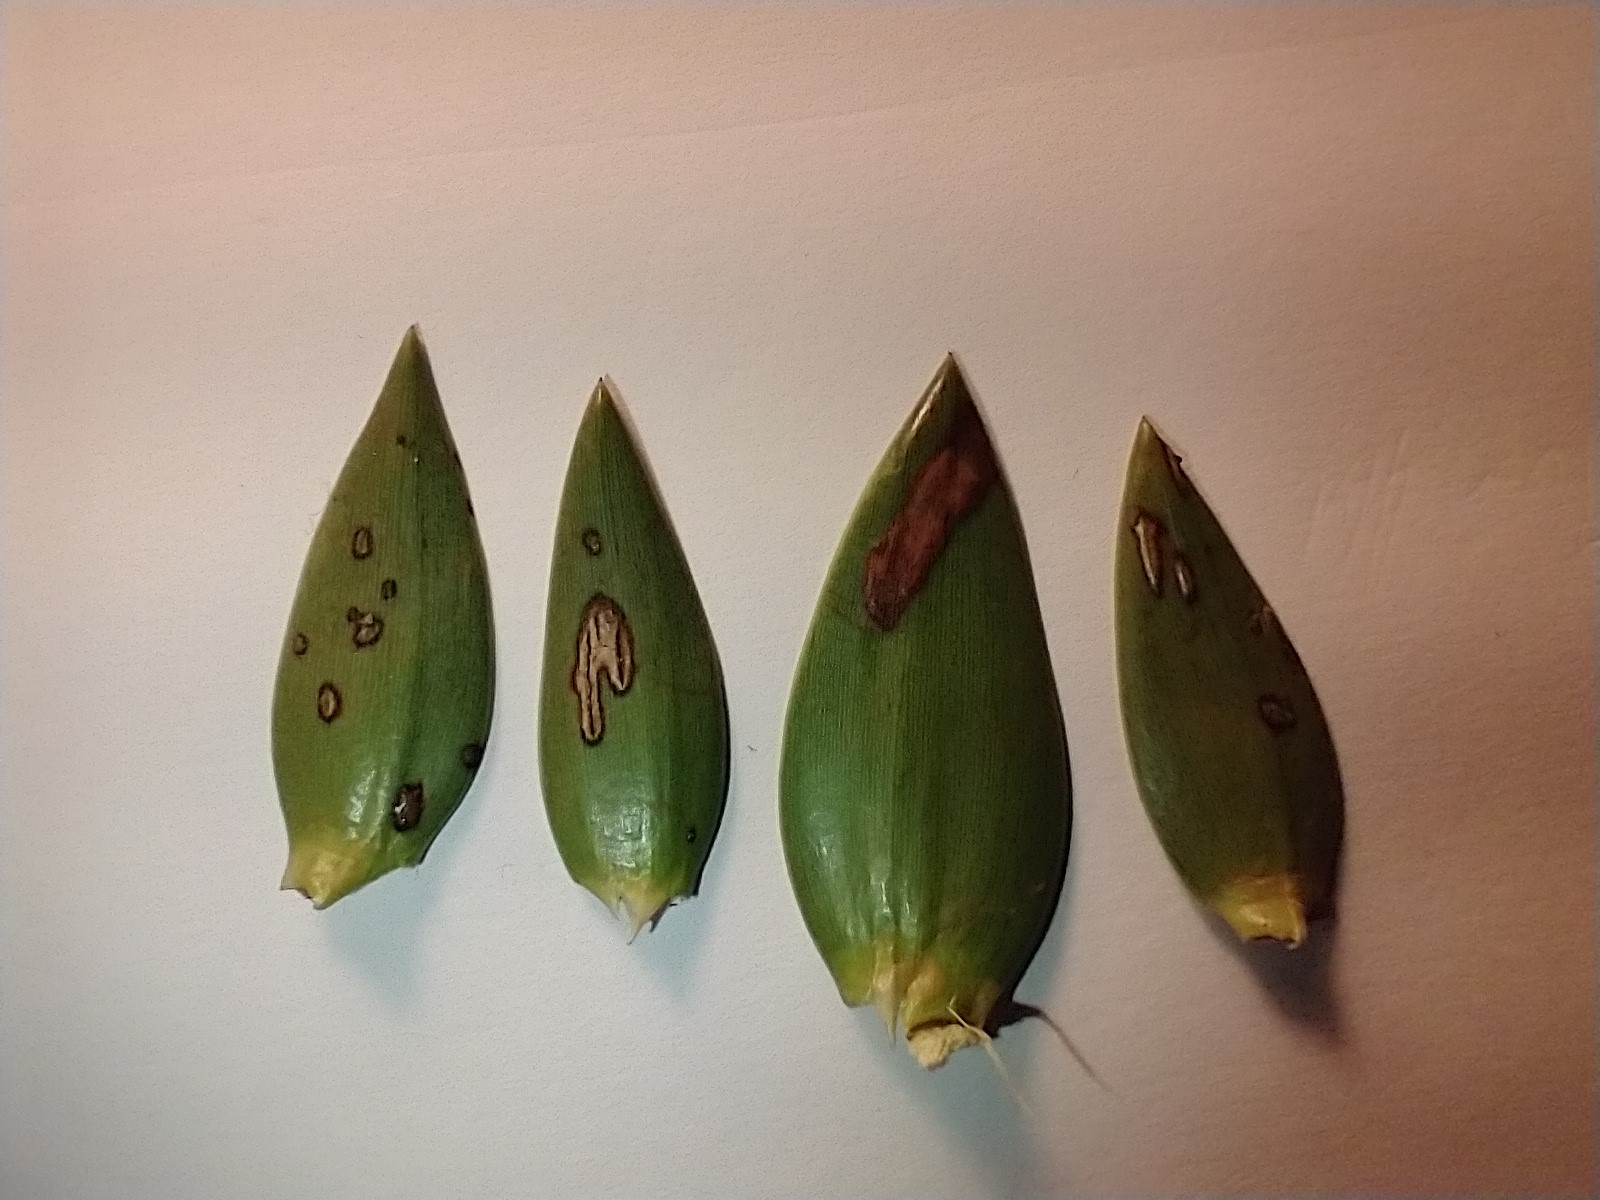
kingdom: Fungi
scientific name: Fungi
